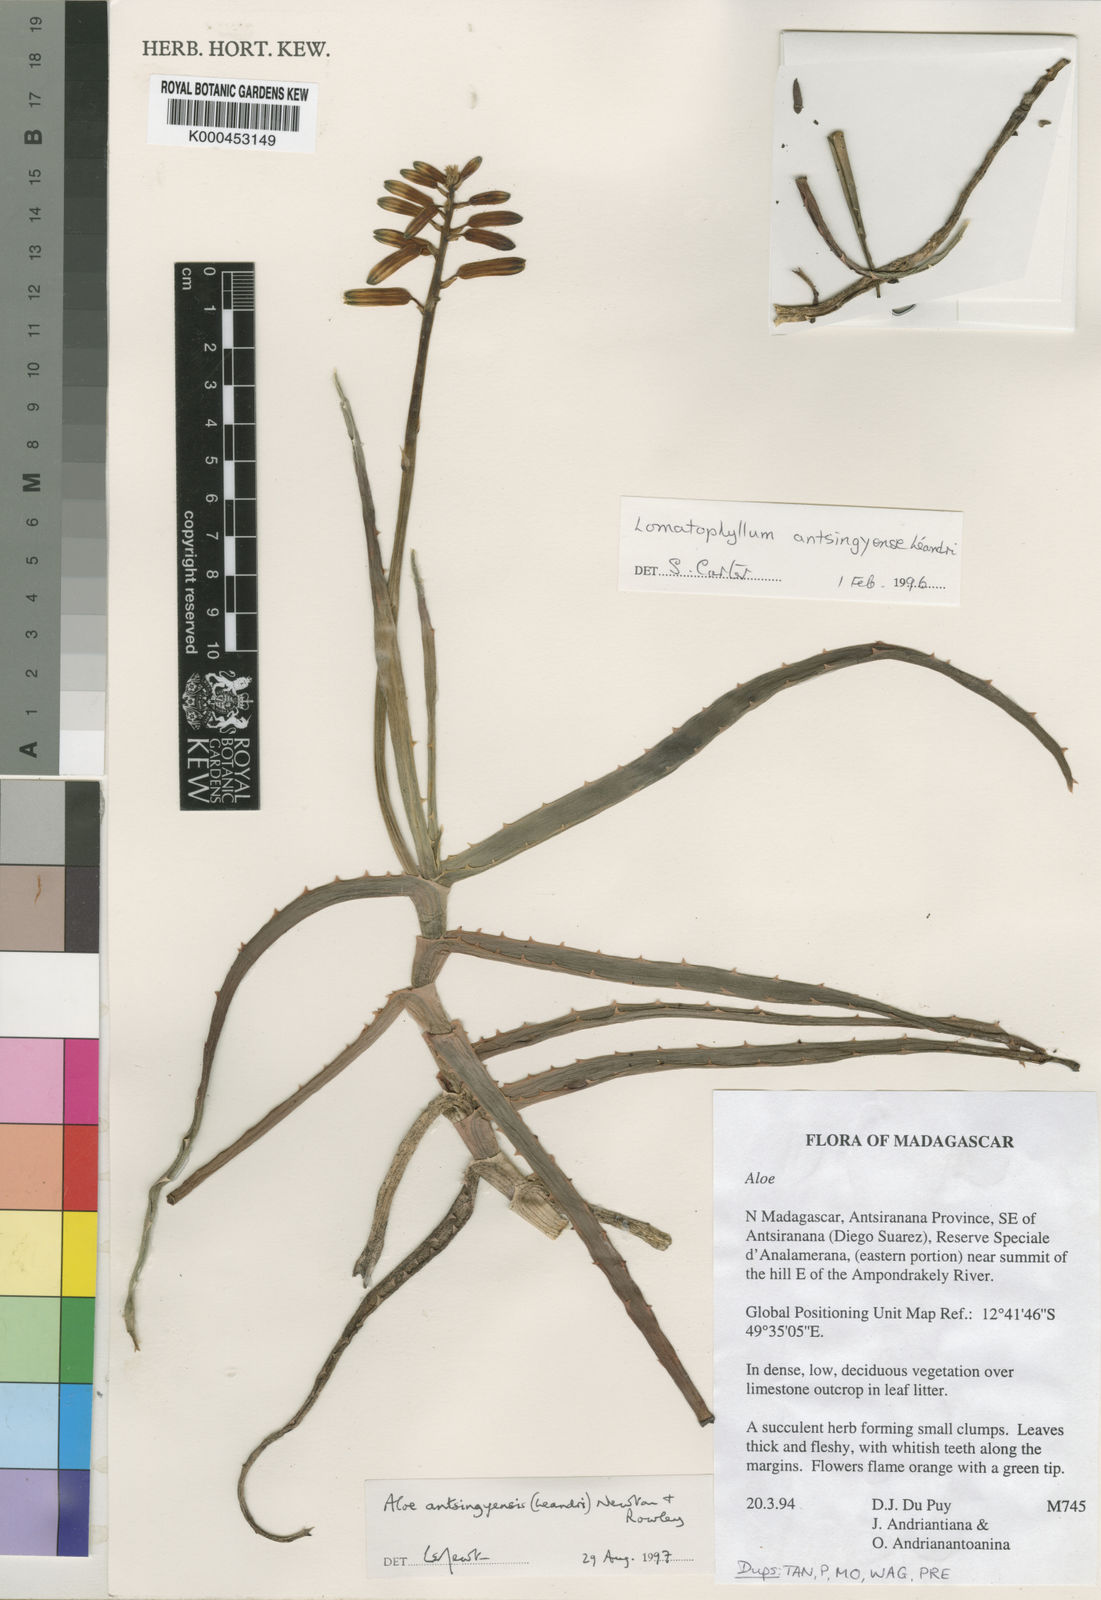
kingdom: Plantae
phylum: Tracheophyta
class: Liliopsida
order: Asparagales
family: Asphodelaceae
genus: Aloe
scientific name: Aloe antsingyensis
